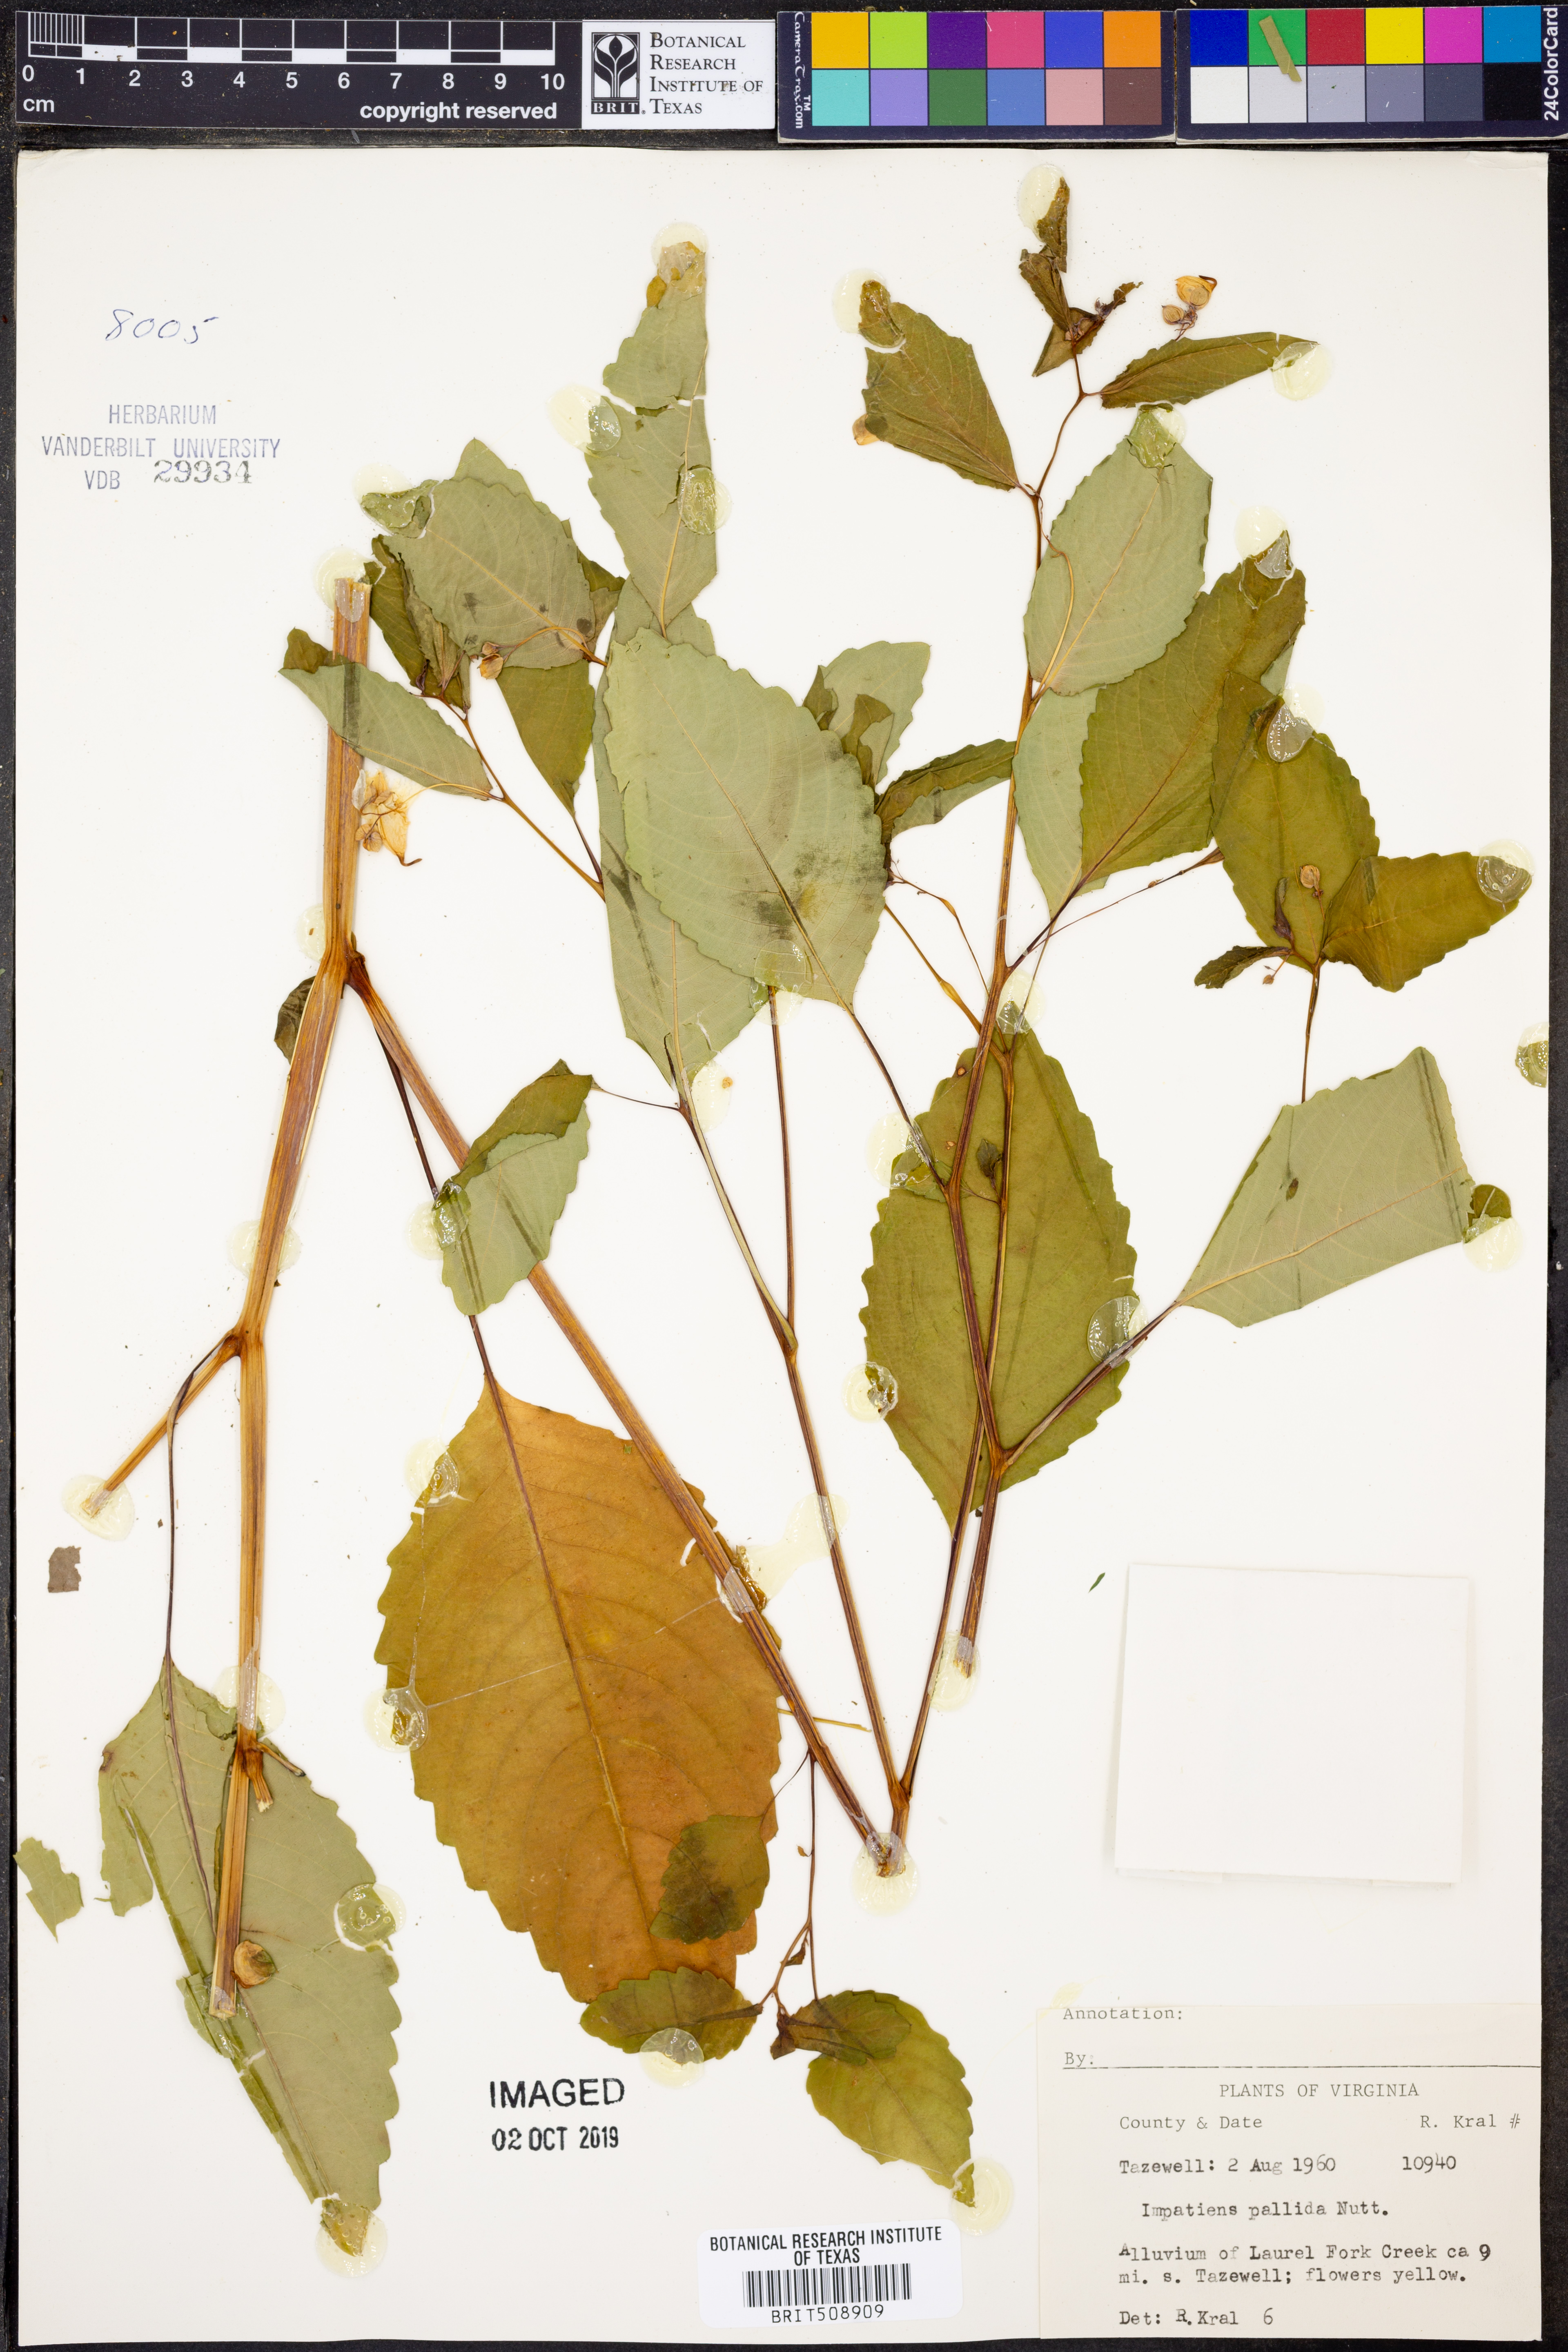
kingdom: Plantae
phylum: Tracheophyta
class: Magnoliopsida
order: Ericales
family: Balsaminaceae
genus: Impatiens
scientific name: Impatiens pallida
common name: Pale snapweed
